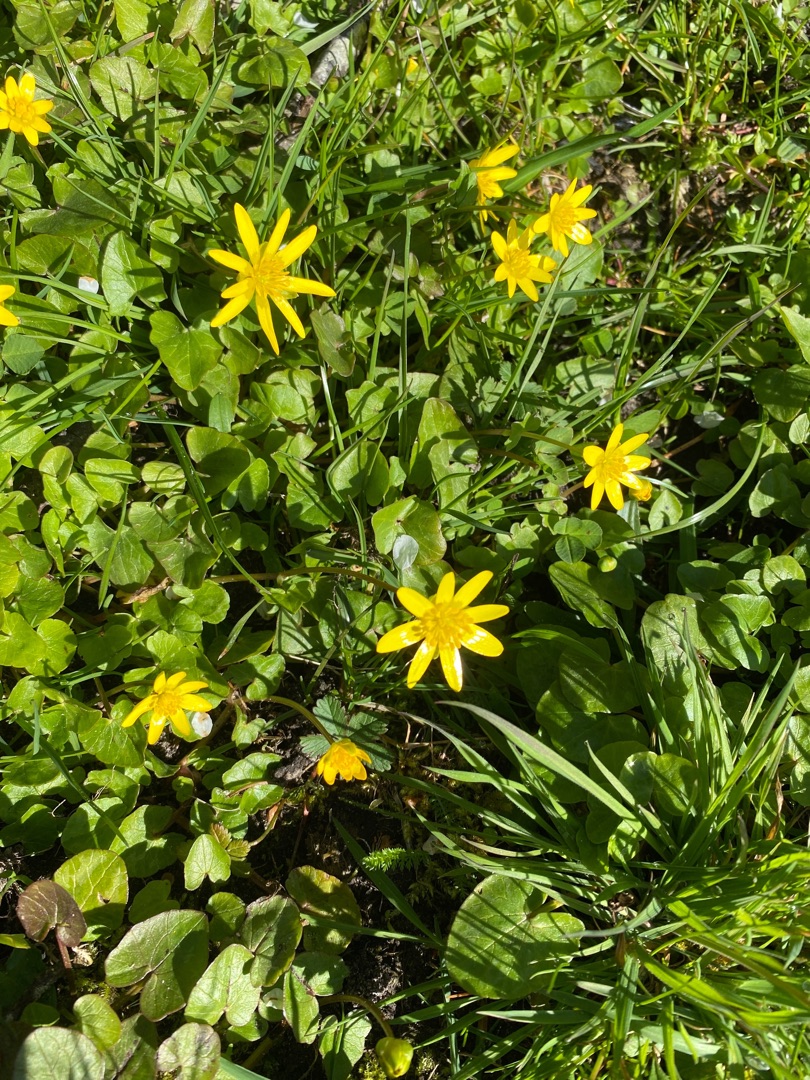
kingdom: Plantae
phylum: Tracheophyta
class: Magnoliopsida
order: Ranunculales
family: Ranunculaceae
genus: Ficaria
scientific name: Ficaria verna
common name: Vorterod
